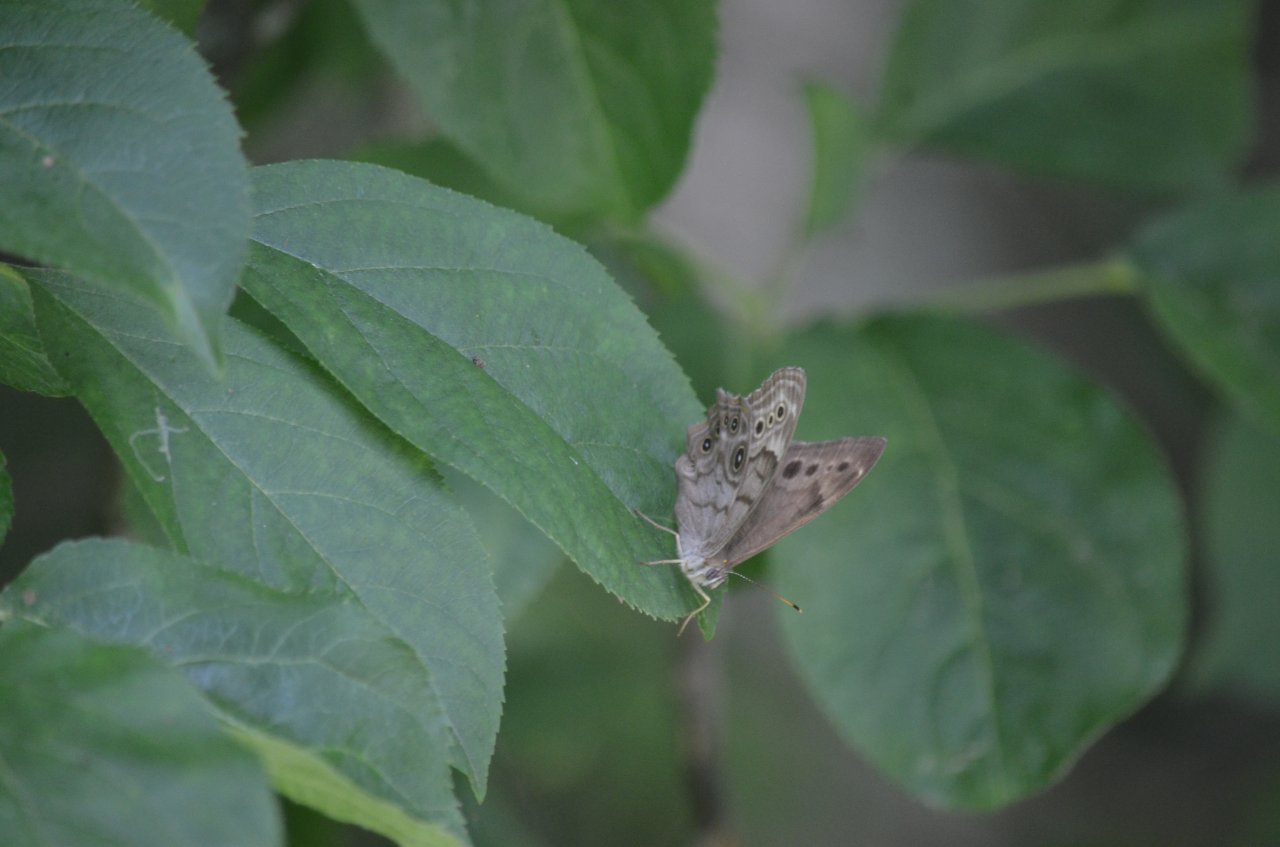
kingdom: Animalia
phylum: Arthropoda
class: Insecta
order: Lepidoptera
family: Nymphalidae
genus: Lethe
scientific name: Lethe anthedon
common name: Northern Pearly-Eye
